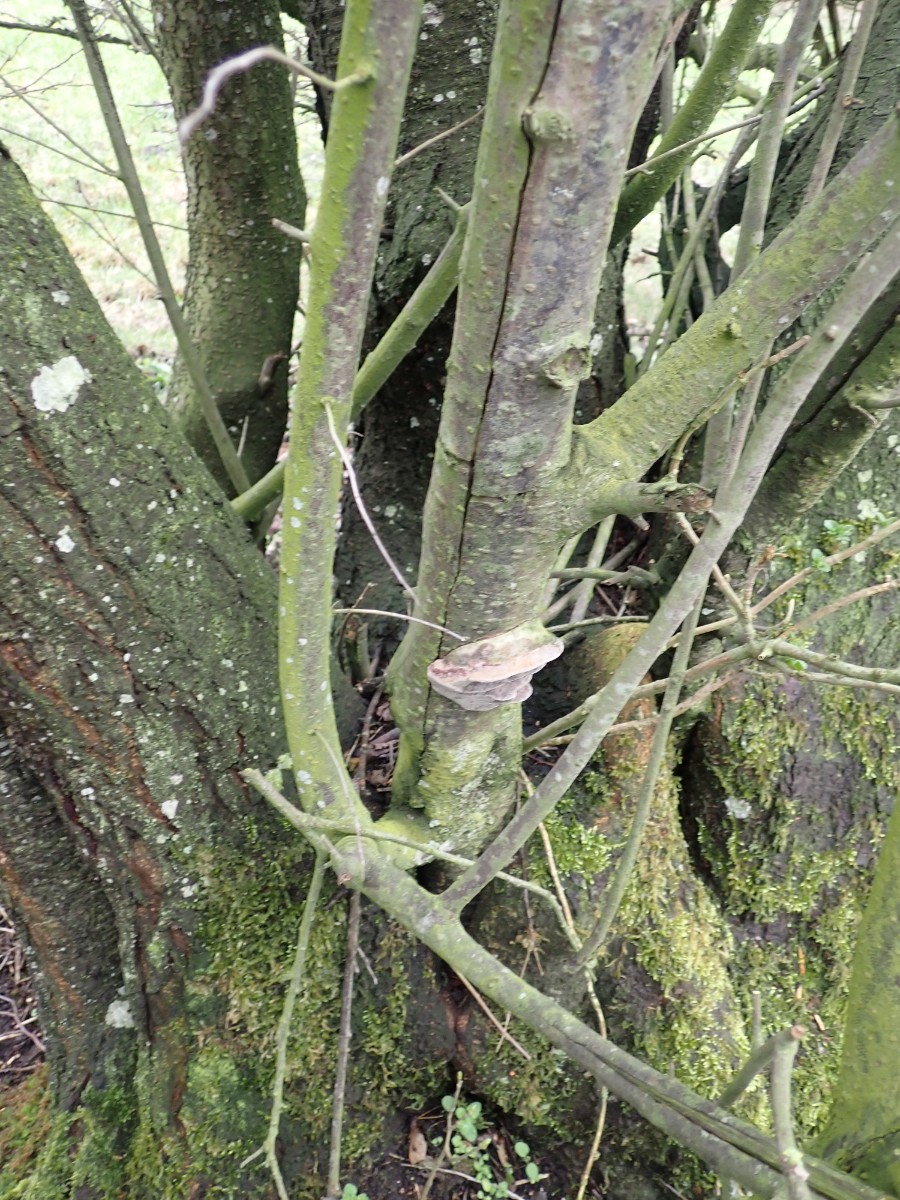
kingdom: Fungi
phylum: Basidiomycota
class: Agaricomycetes
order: Hymenochaetales
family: Hymenochaetaceae
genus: Phellinus
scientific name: Phellinus pomaceus
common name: blomme-ildporesvamp
